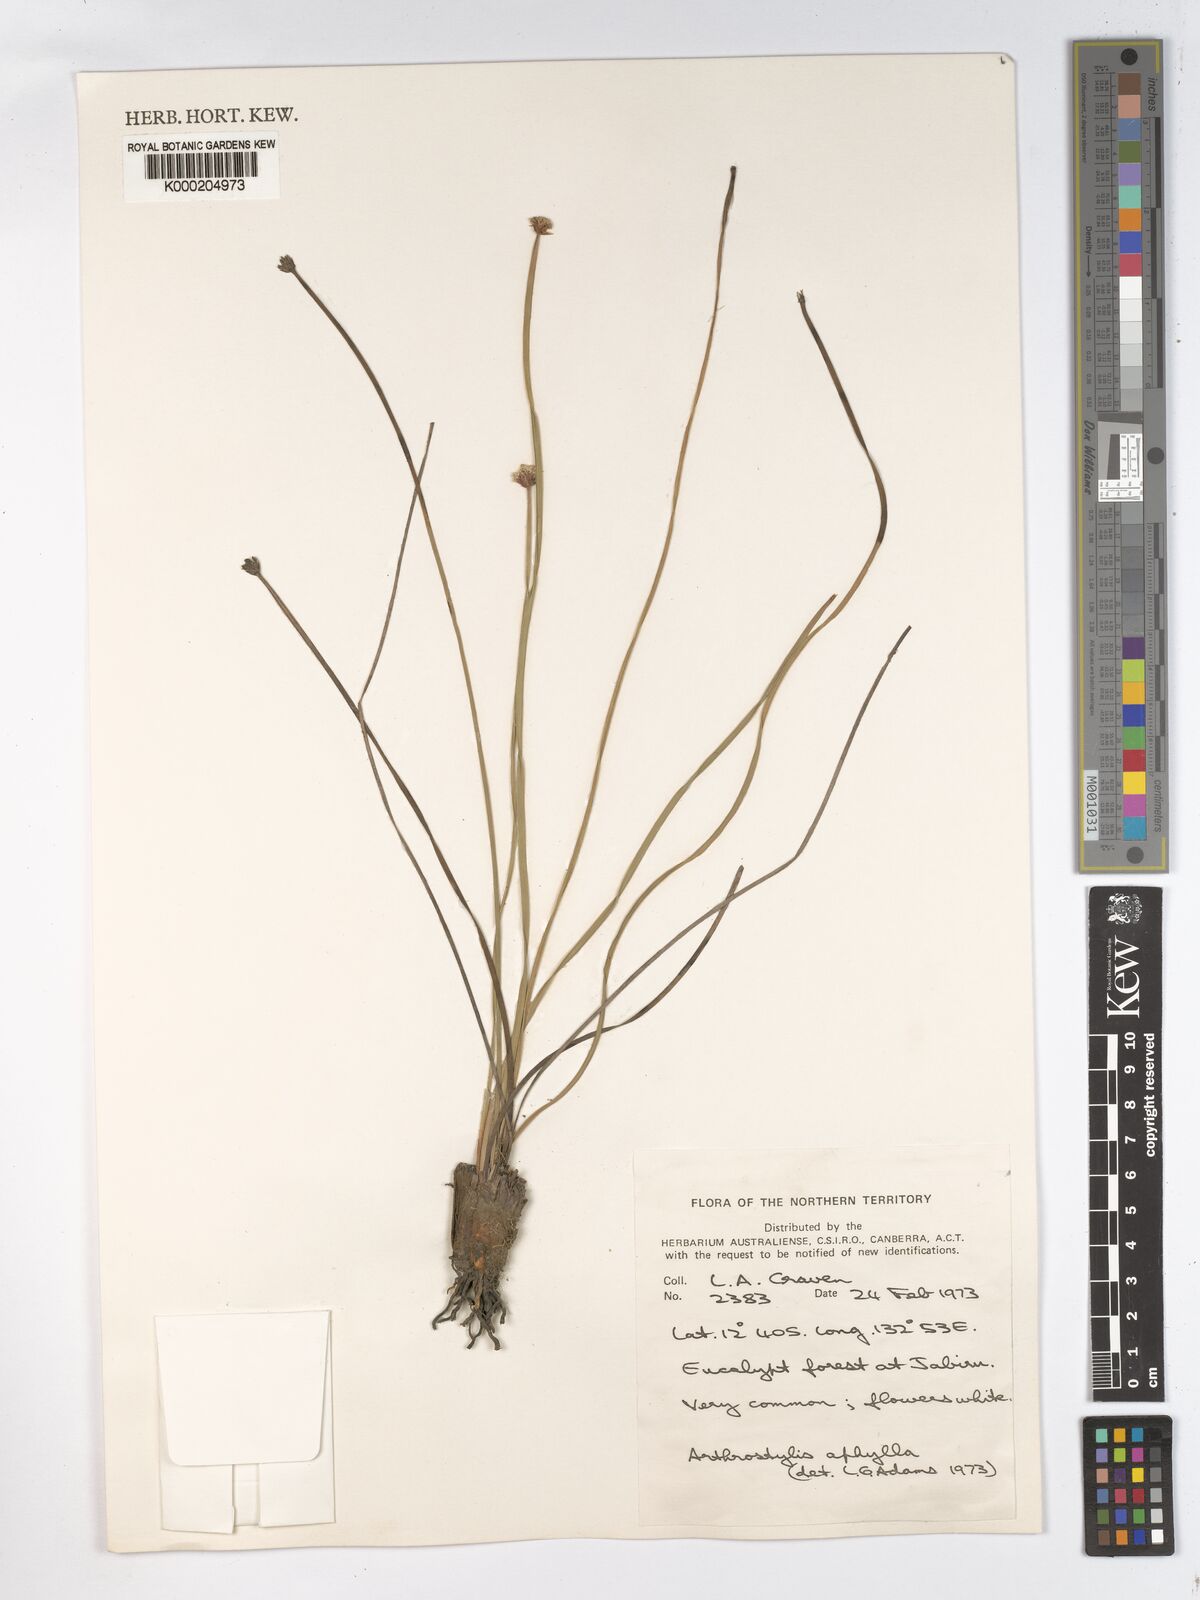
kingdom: Plantae
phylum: Tracheophyta
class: Liliopsida
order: Poales
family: Cyperaceae
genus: Arthrostylis
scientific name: Arthrostylis aphylla
